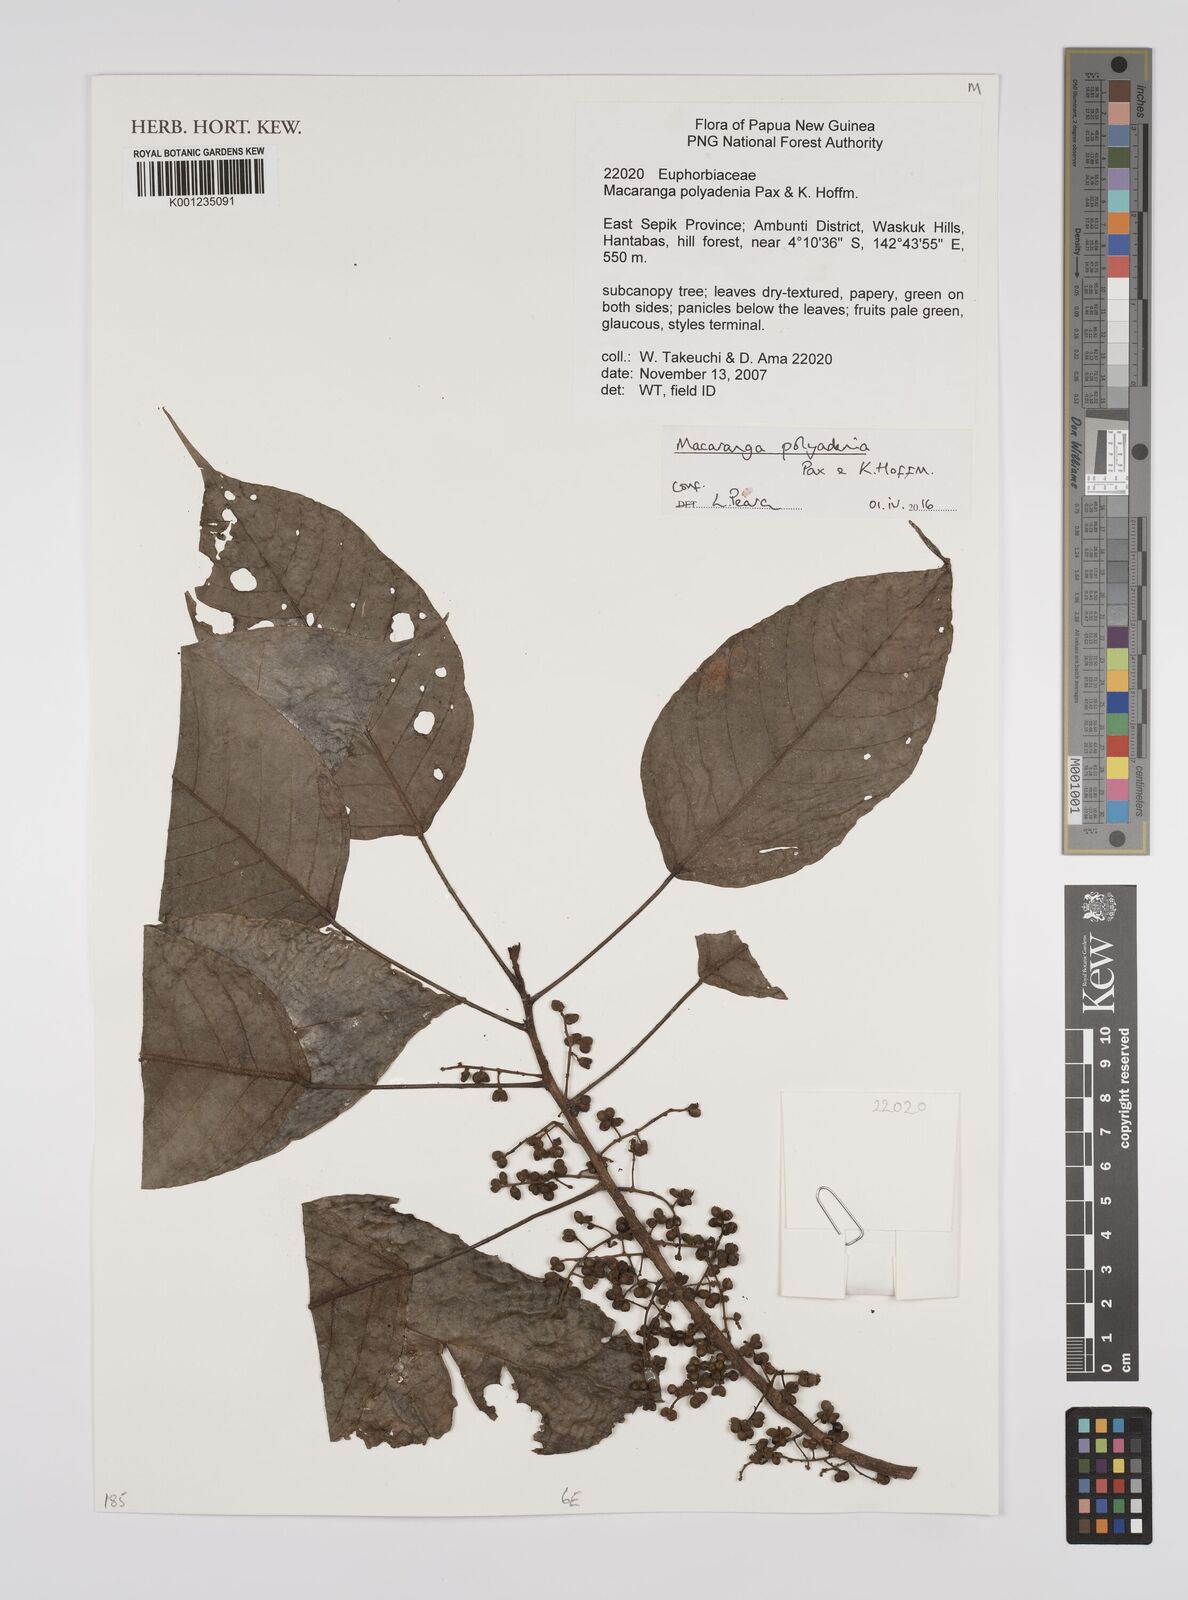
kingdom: Plantae
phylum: Tracheophyta
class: Magnoliopsida
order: Malpighiales
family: Euphorbiaceae
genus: Macaranga
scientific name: Macaranga polyadenia
